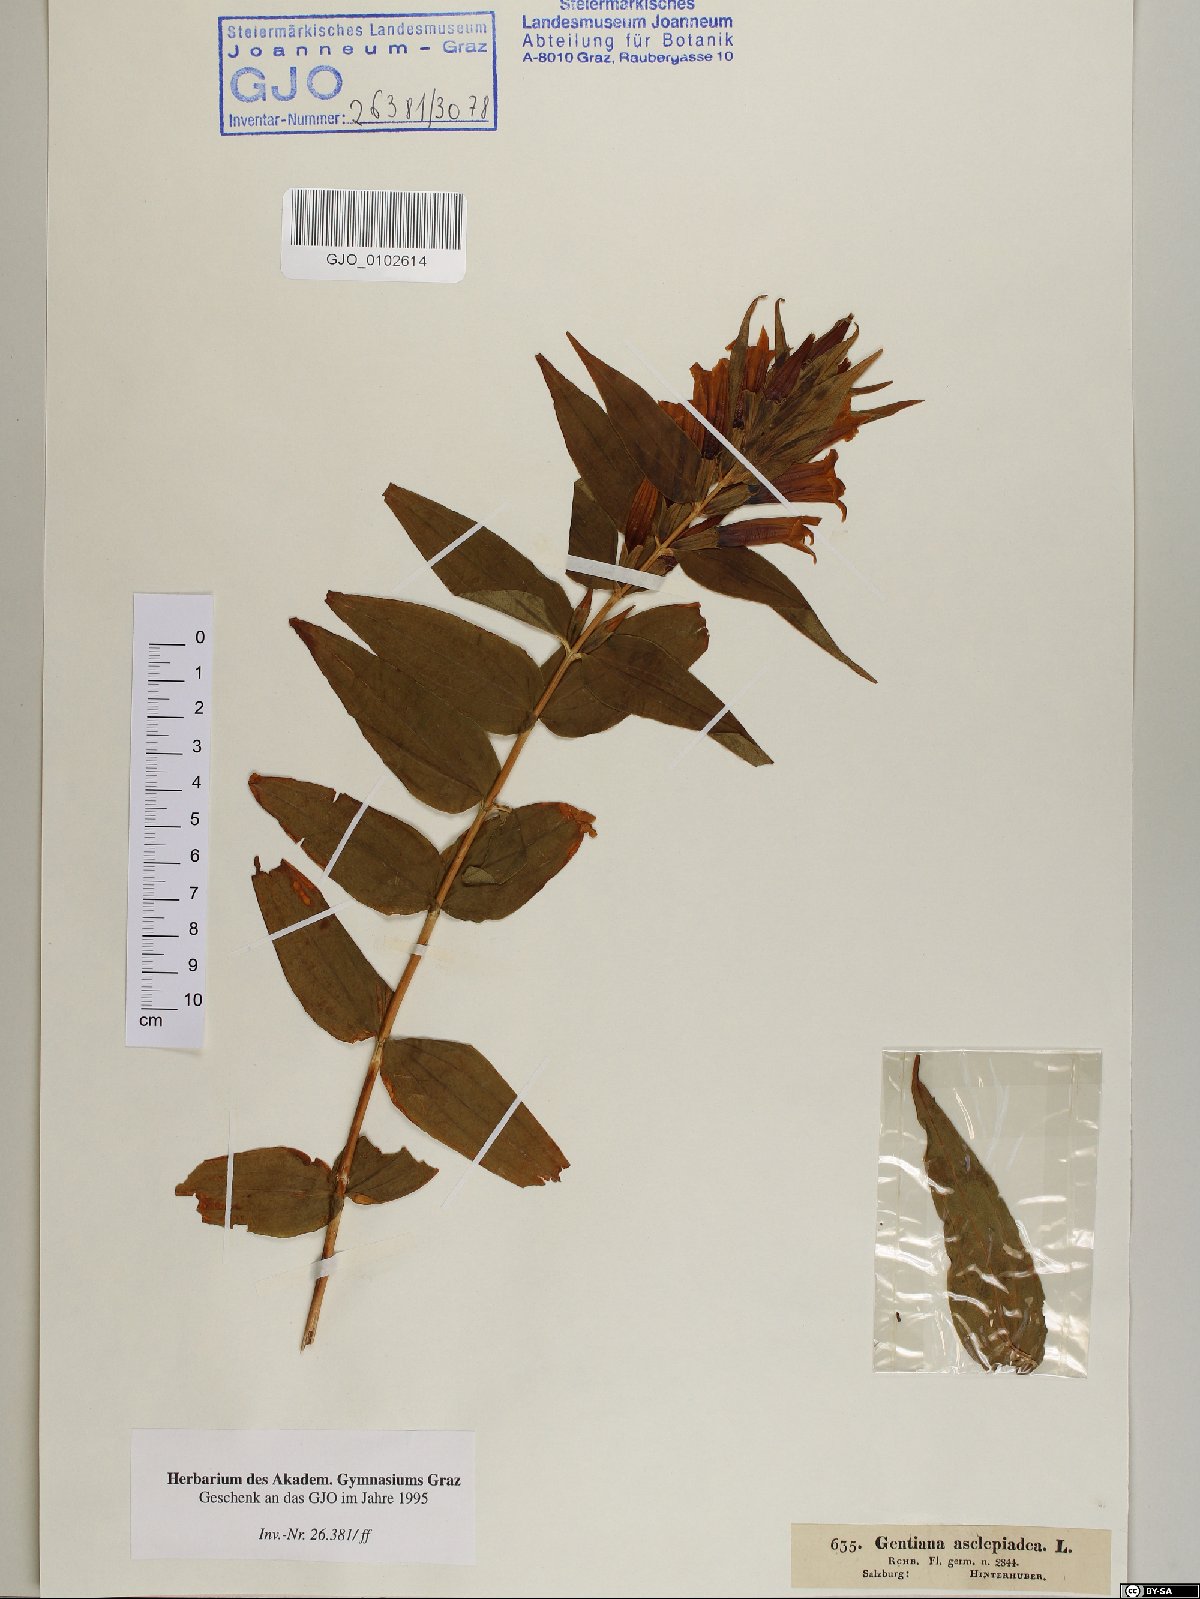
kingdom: Plantae
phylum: Tracheophyta
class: Magnoliopsida
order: Gentianales
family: Gentianaceae
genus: Gentiana
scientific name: Gentiana asclepiadea
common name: Willow gentian
